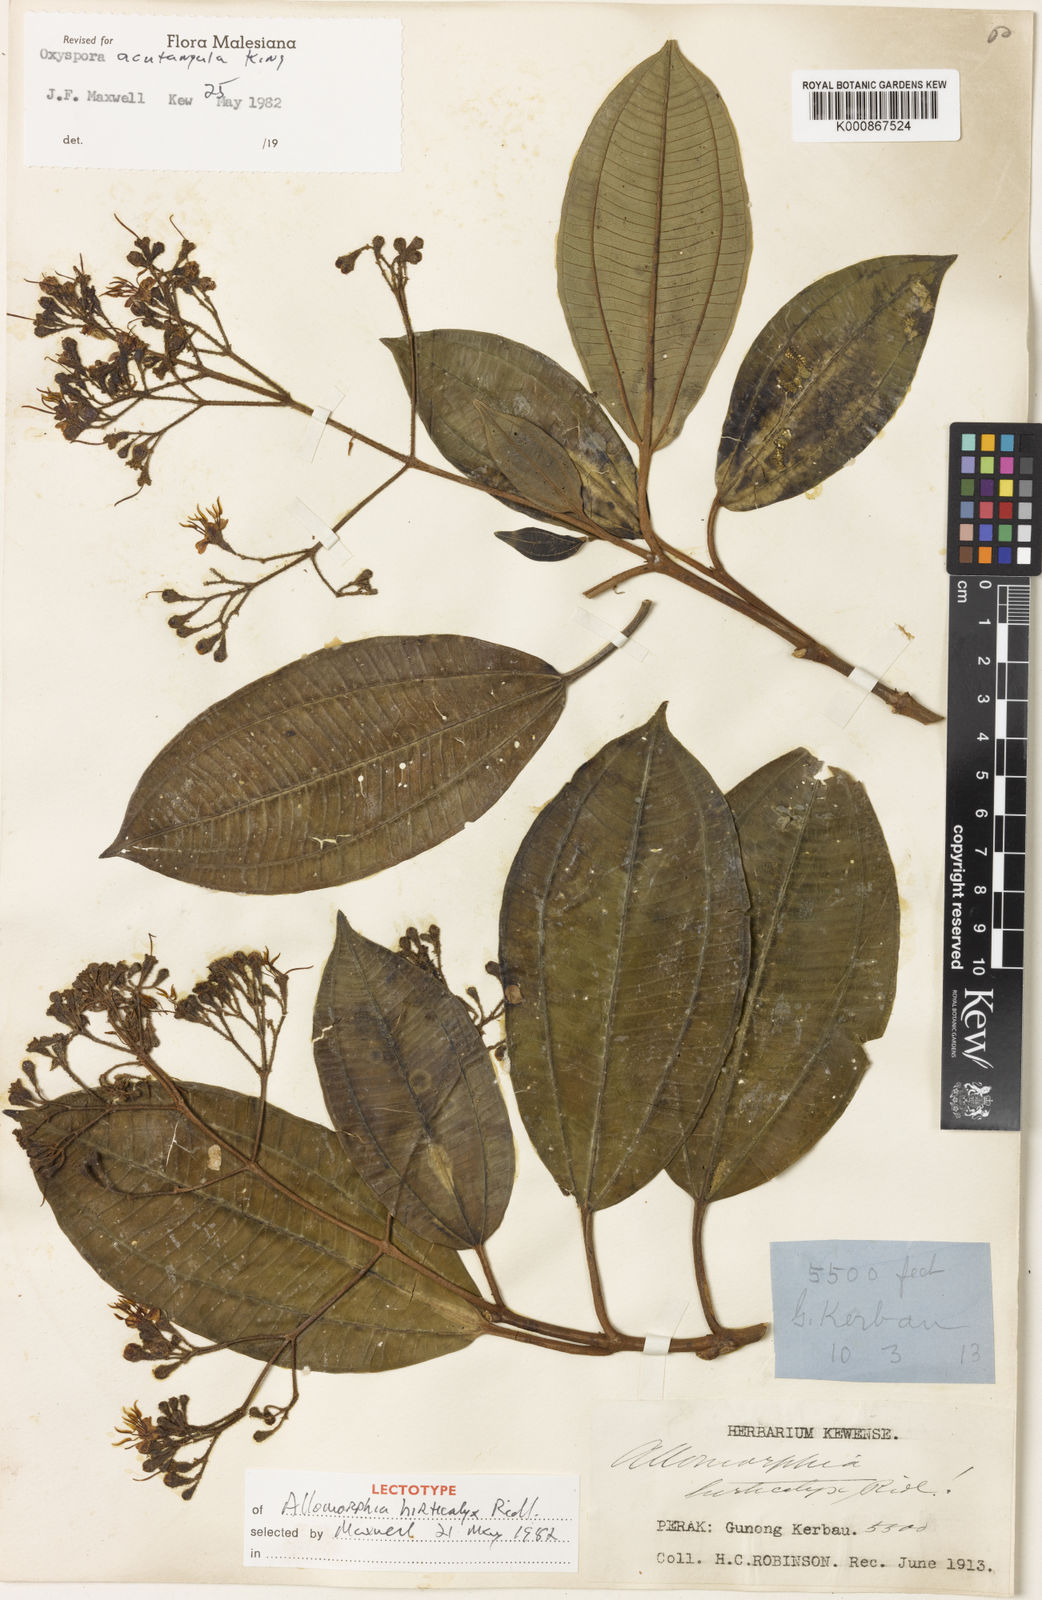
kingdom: Plantae
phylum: Tracheophyta
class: Magnoliopsida
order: Myrtales
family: Melastomataceae
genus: Allomorphia
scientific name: Allomorphia acutangula
